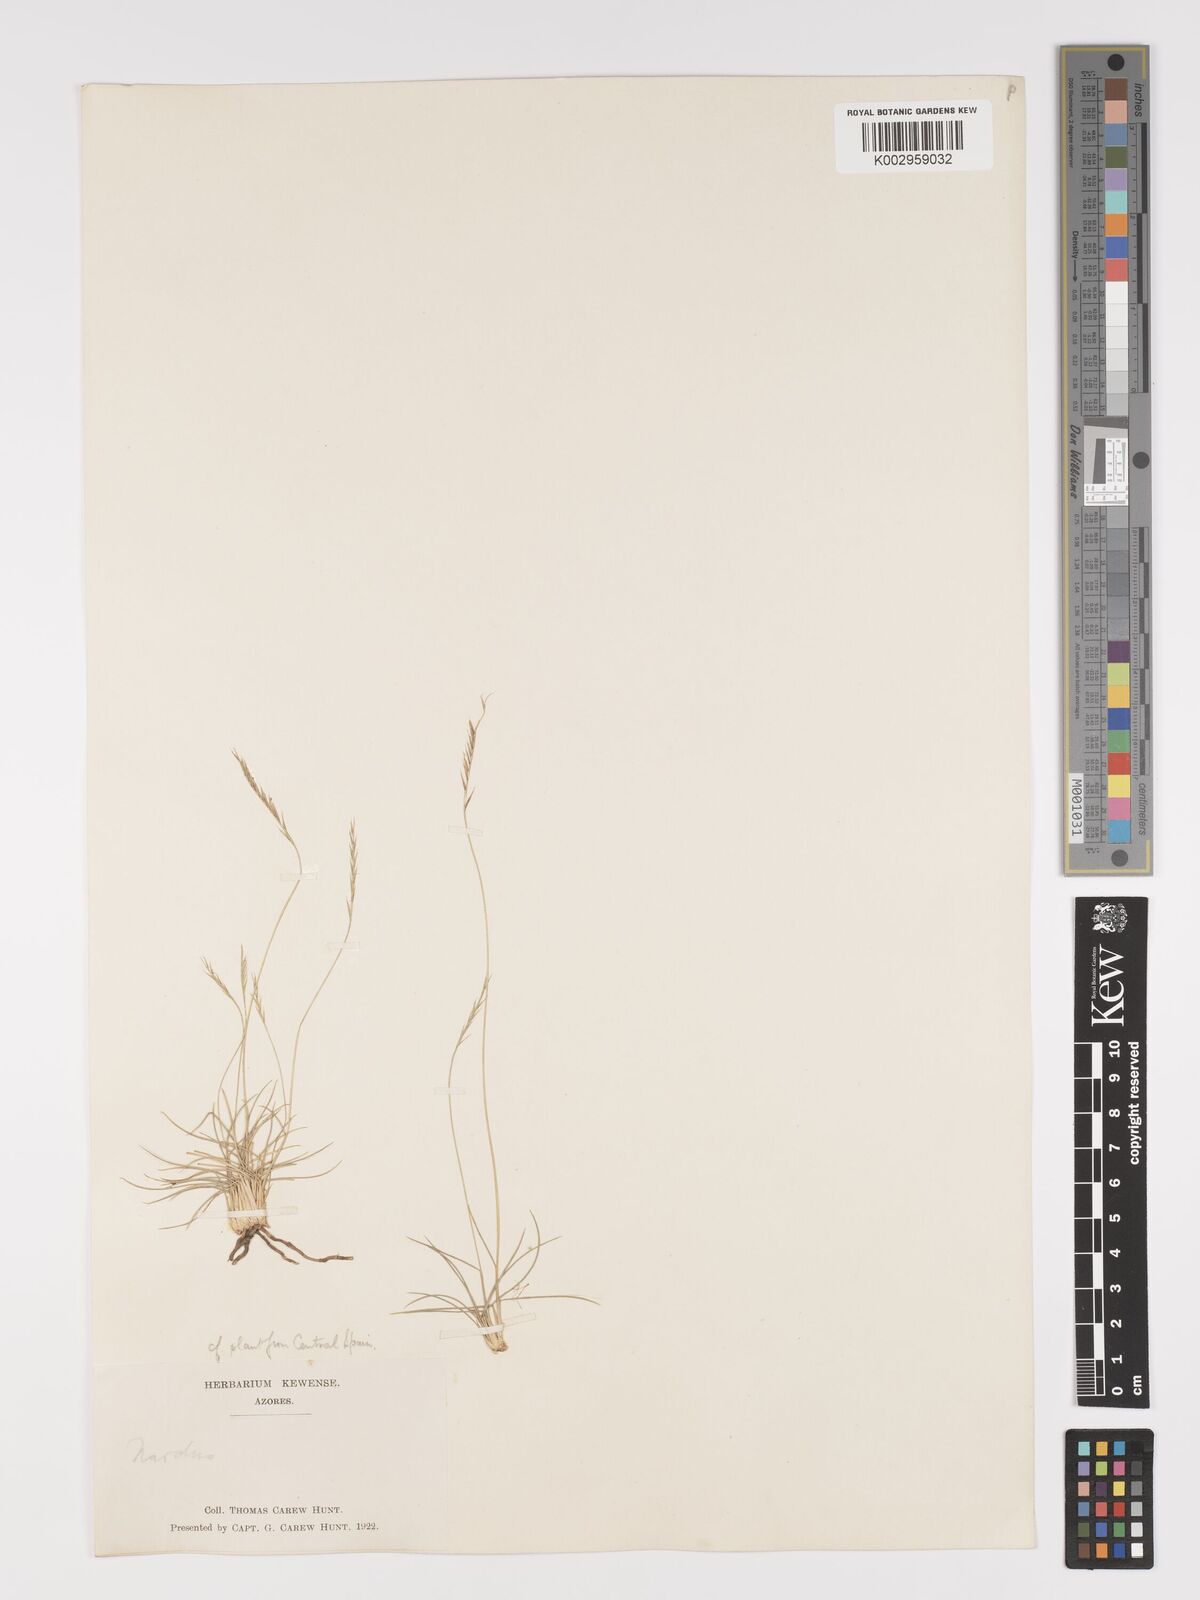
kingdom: Plantae
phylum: Tracheophyta
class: Liliopsida
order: Poales
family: Poaceae
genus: Nardus
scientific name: Nardus stricta
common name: Mat-grass
